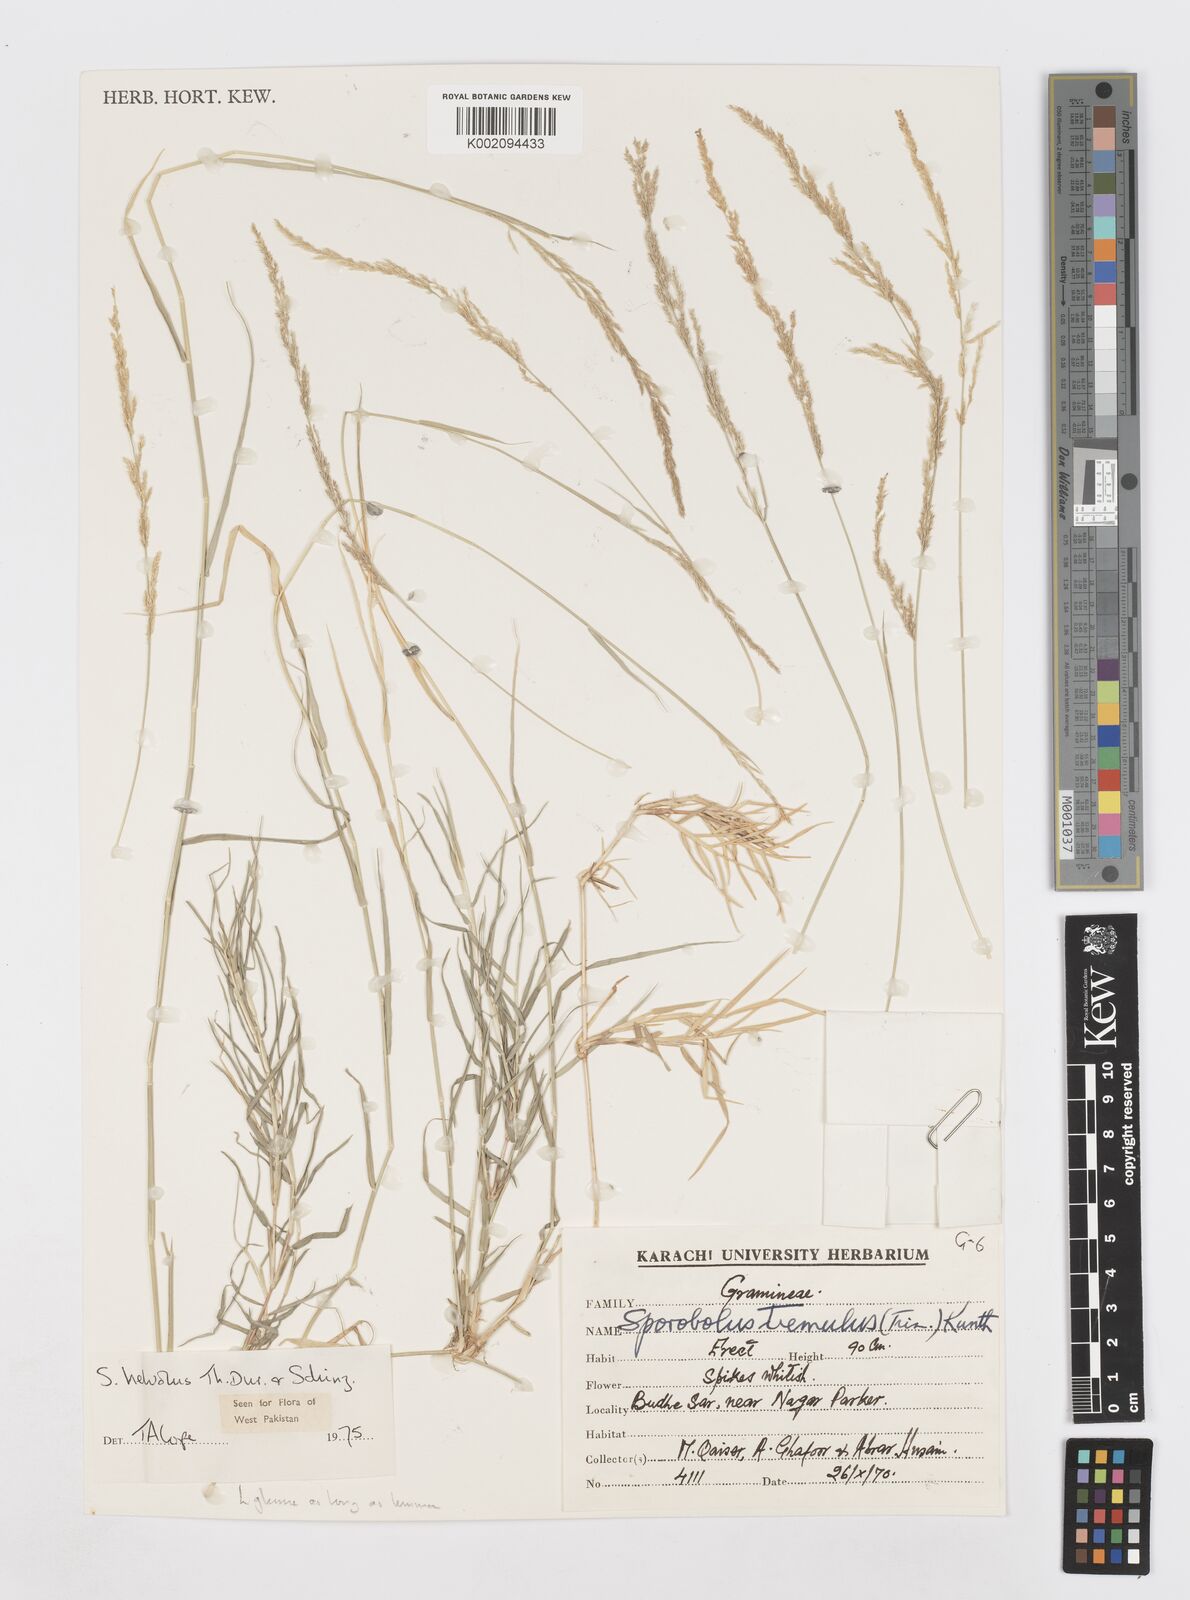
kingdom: Plantae
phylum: Tracheophyta
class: Liliopsida
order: Poales
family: Poaceae
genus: Sporobolus
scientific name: Sporobolus helvolus
